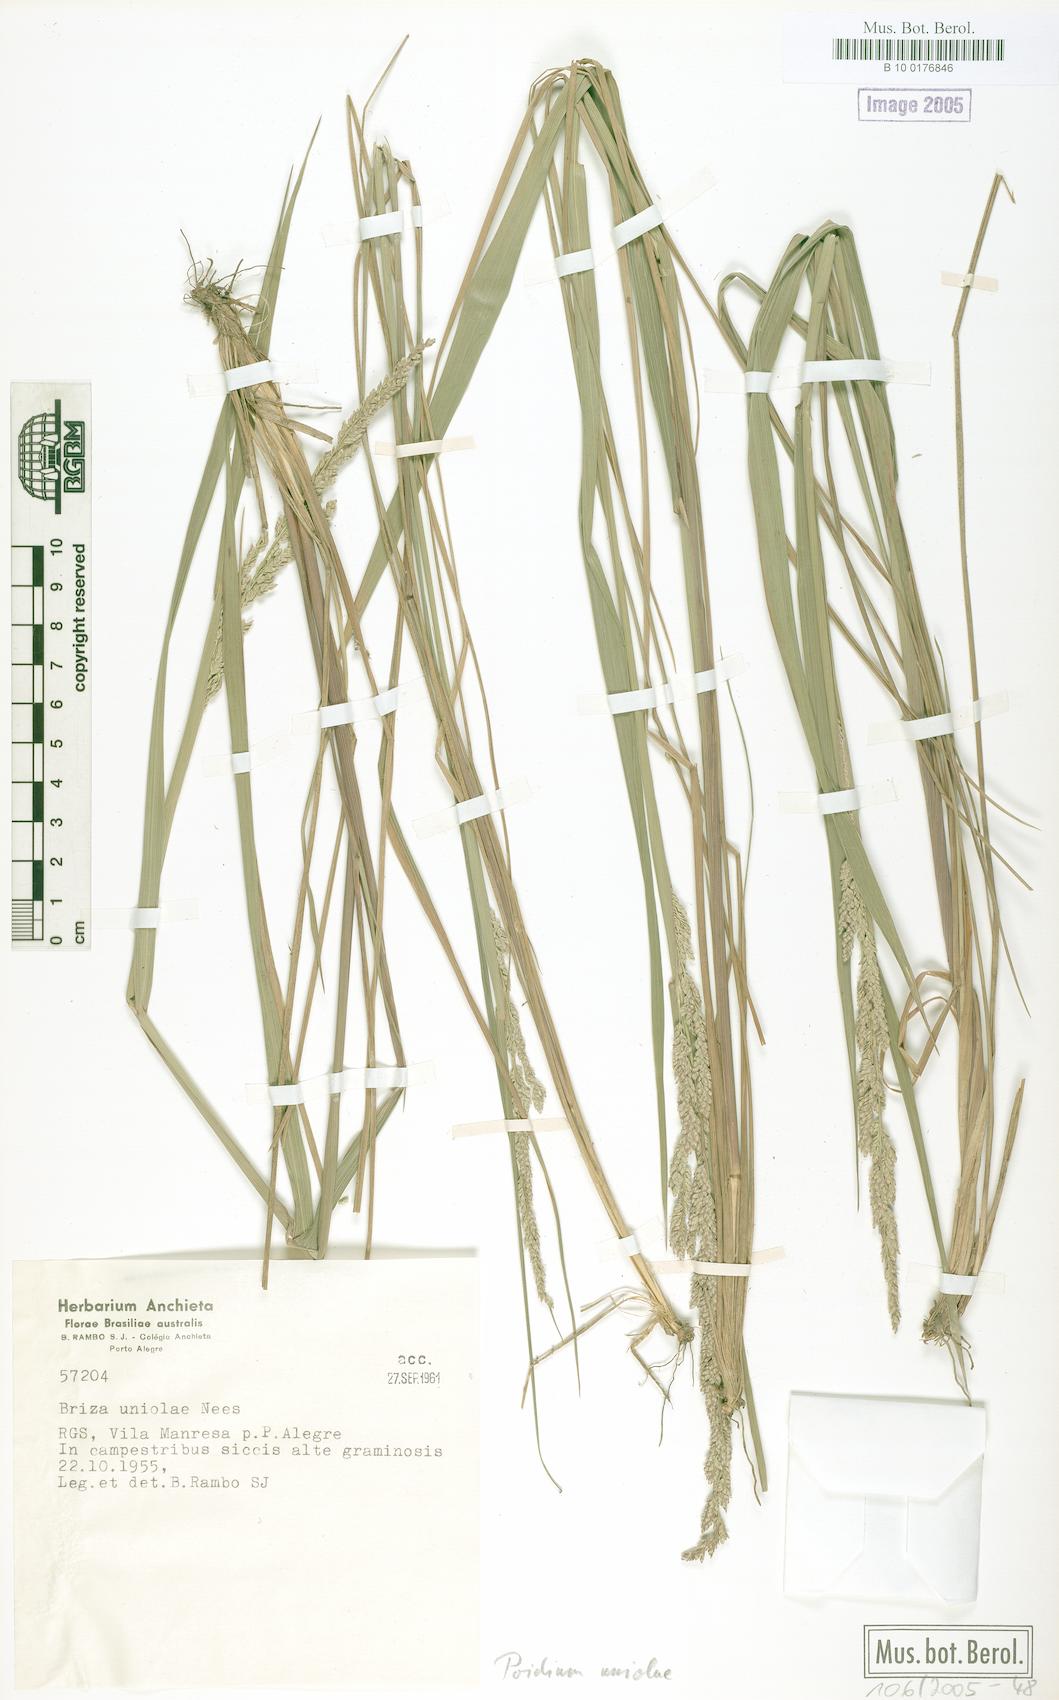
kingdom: Plantae
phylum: Tracheophyta
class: Liliopsida
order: Poales
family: Poaceae
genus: Poidium
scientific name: Poidium uniolae
